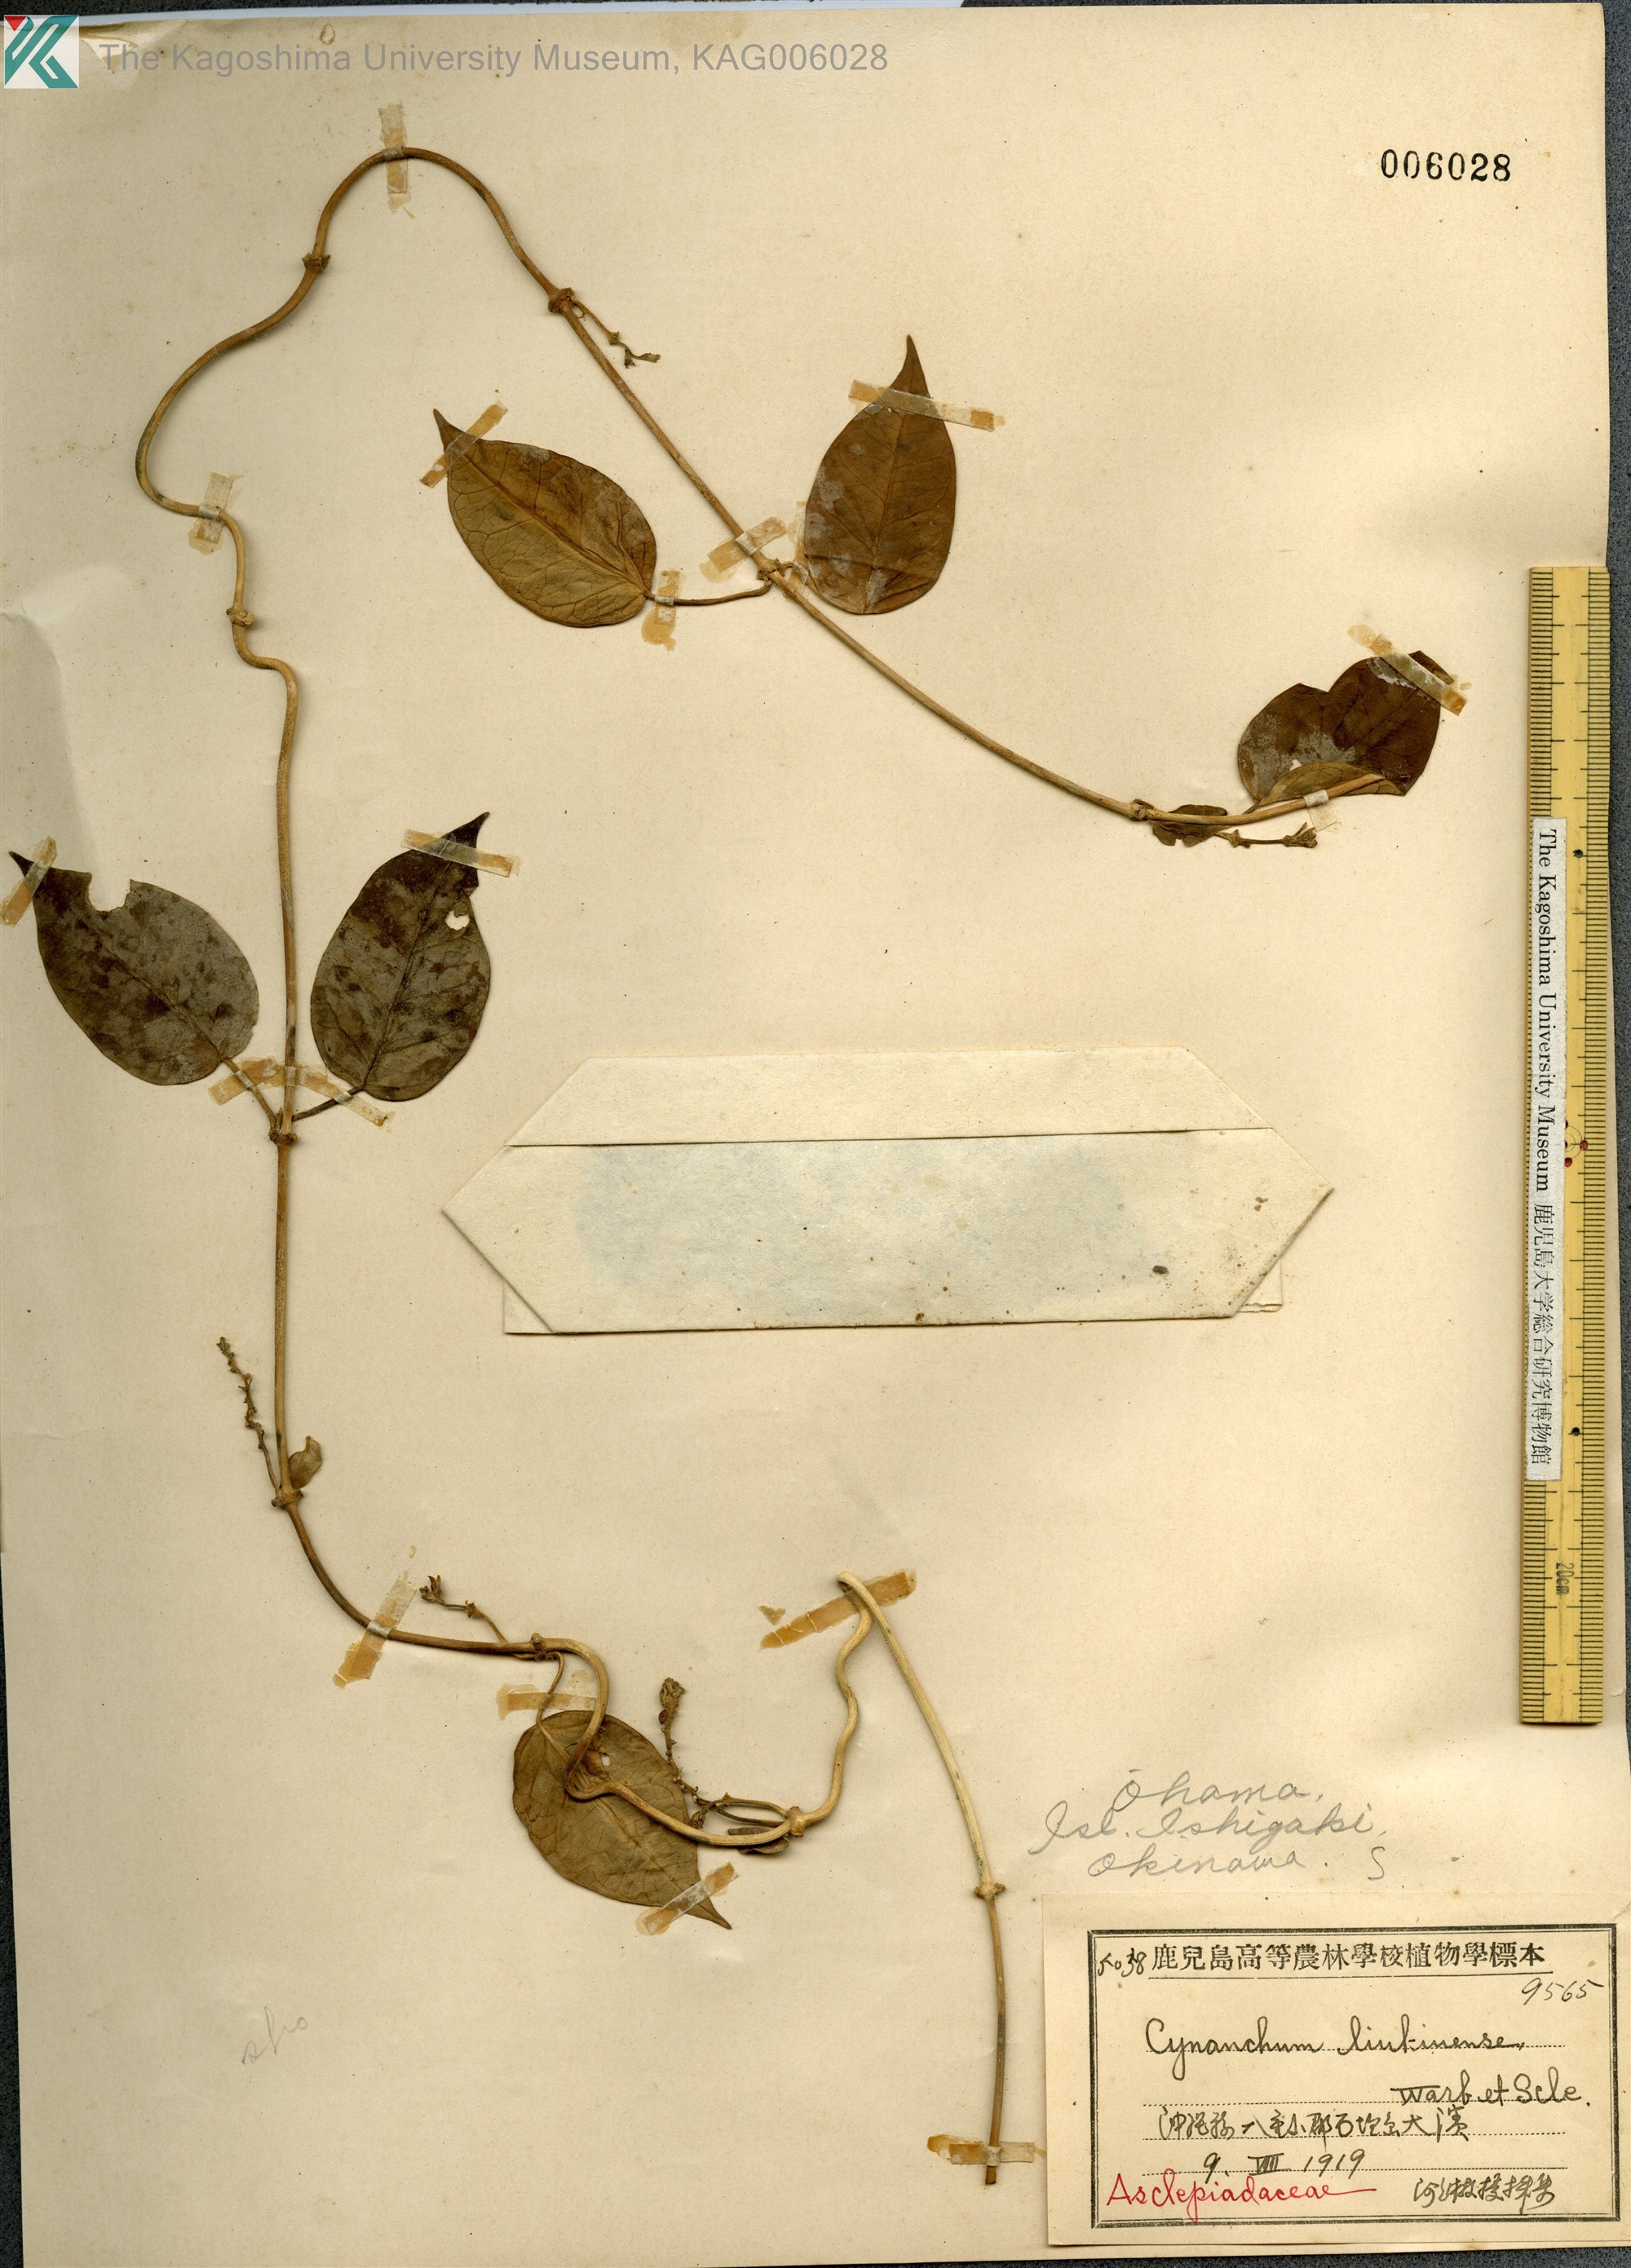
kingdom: Plantae
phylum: Tracheophyta
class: Magnoliopsida
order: Gentianales
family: Apocynaceae
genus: Cynanchum
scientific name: Cynanchum liukiuense
